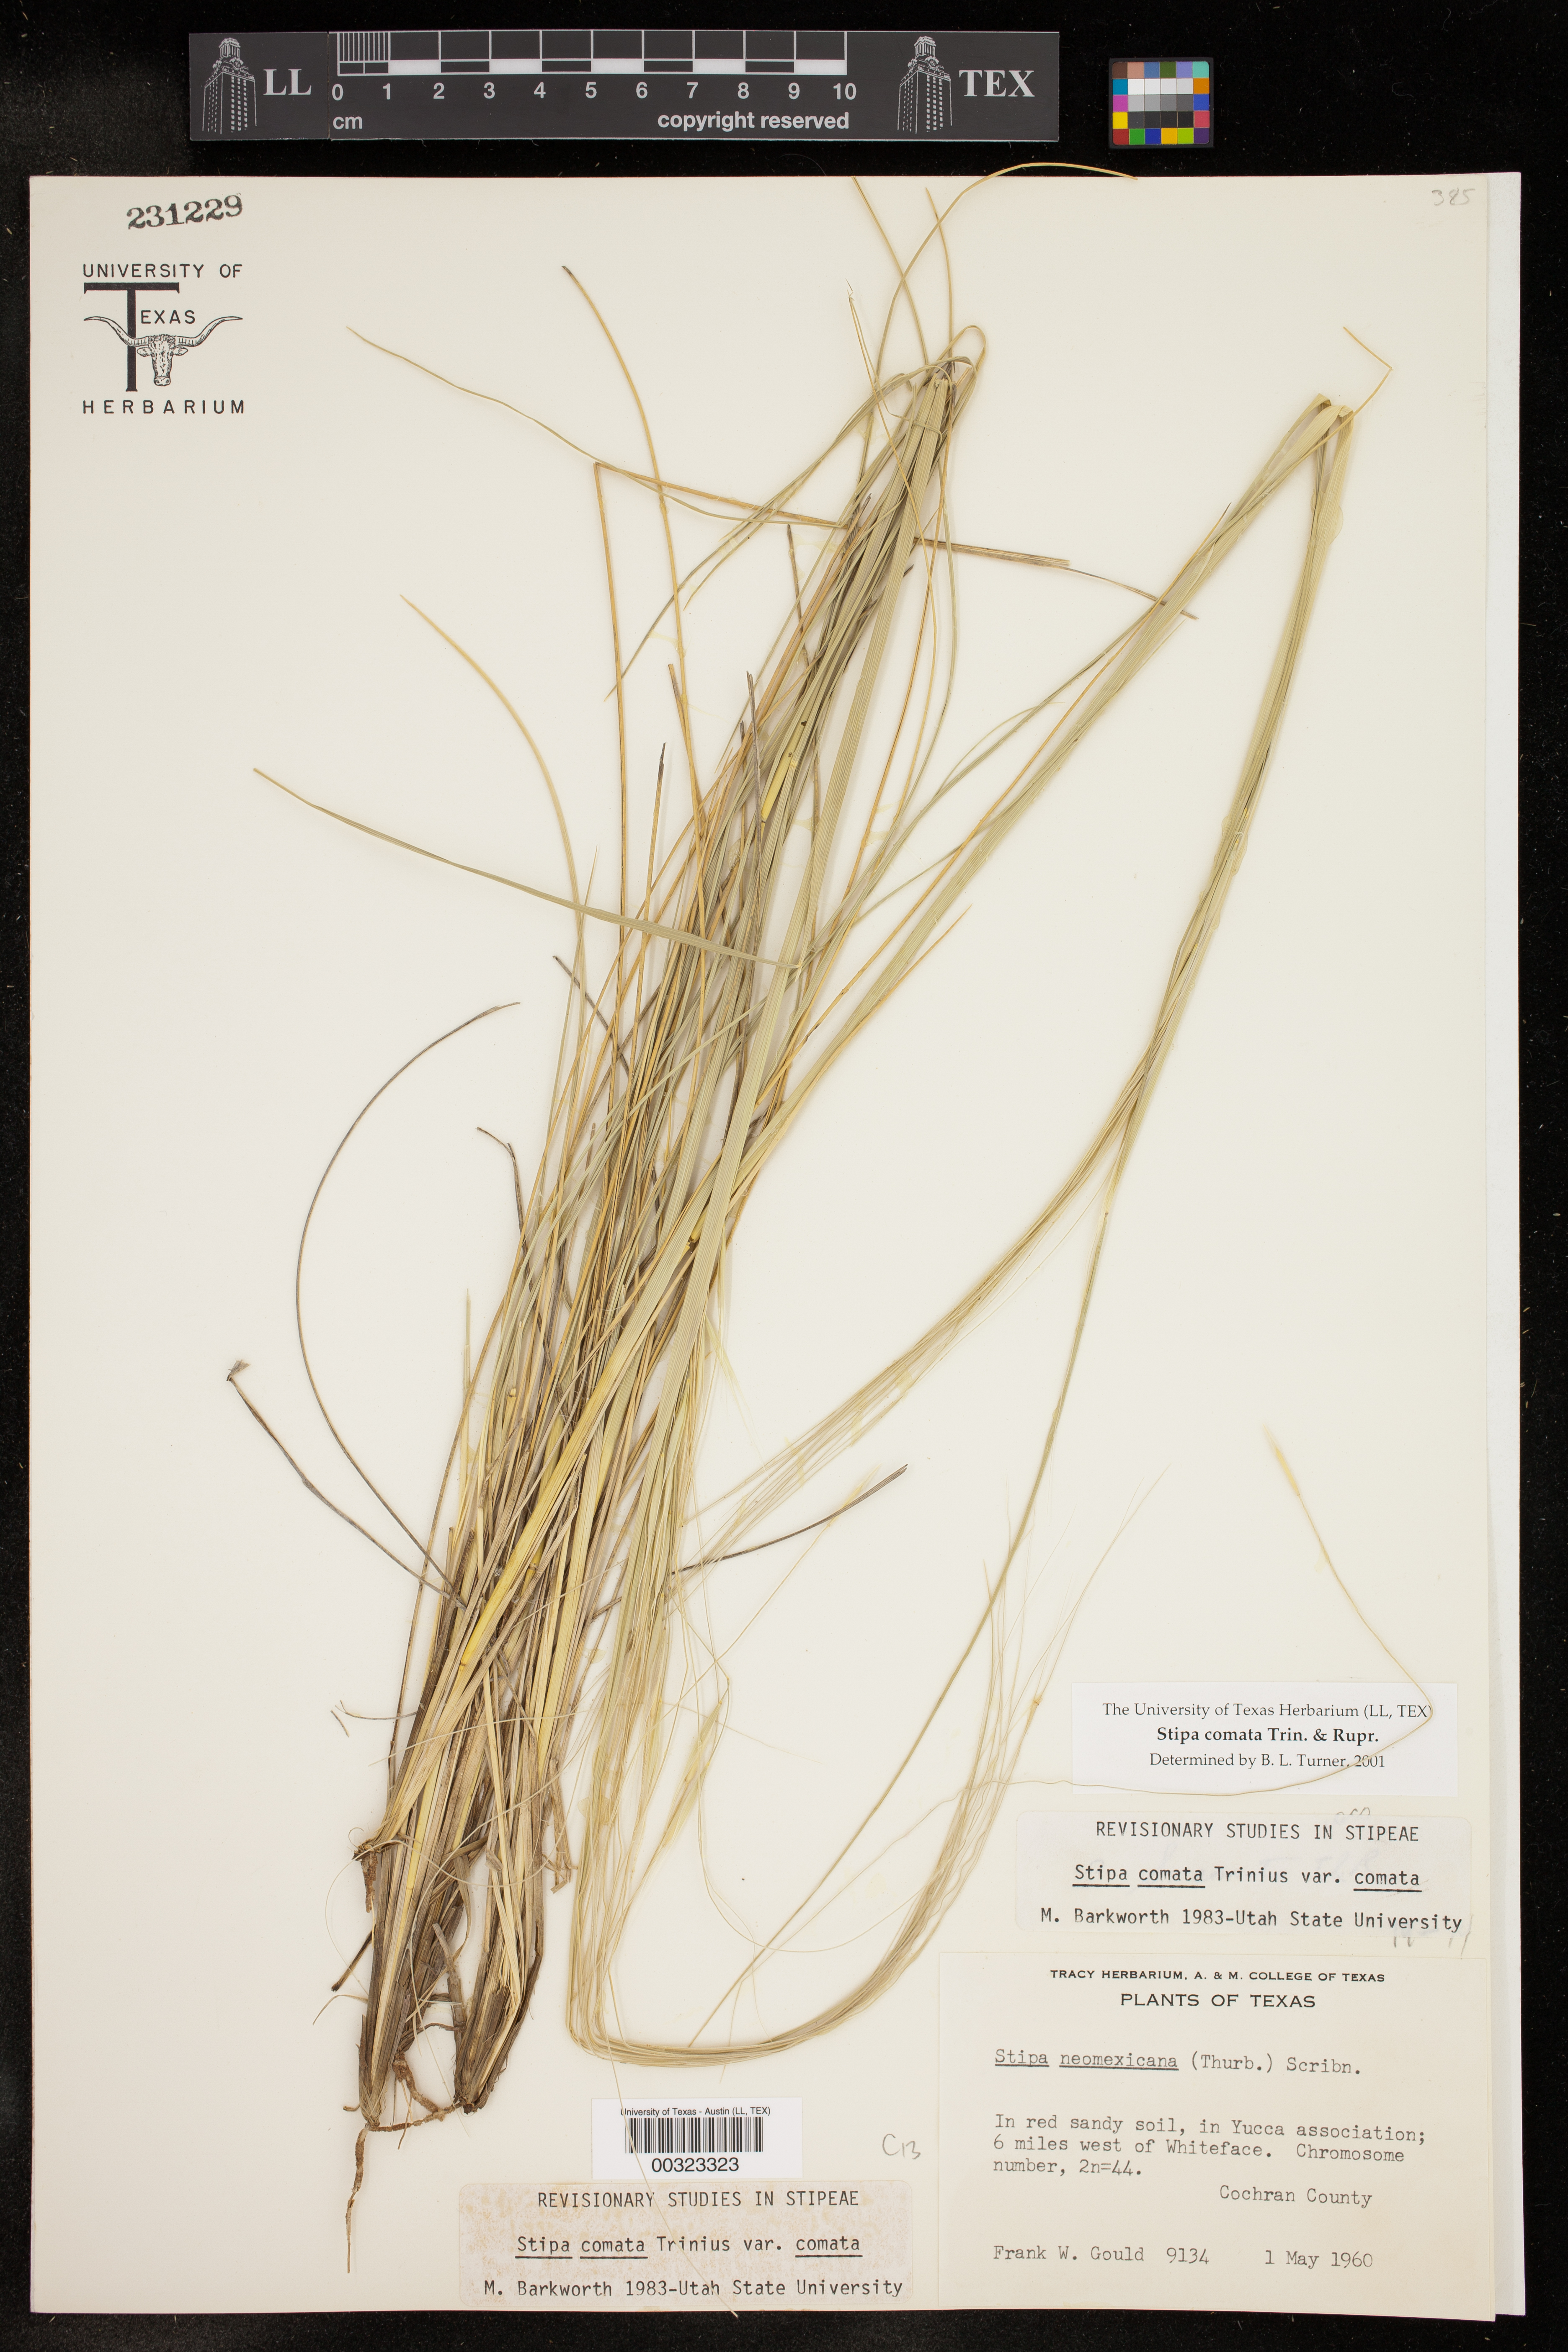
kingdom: Plantae
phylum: Tracheophyta
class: Liliopsida
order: Poales
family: Poaceae
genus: Hesperostipa
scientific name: Hesperostipa comata
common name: Needle-and-thread grass
